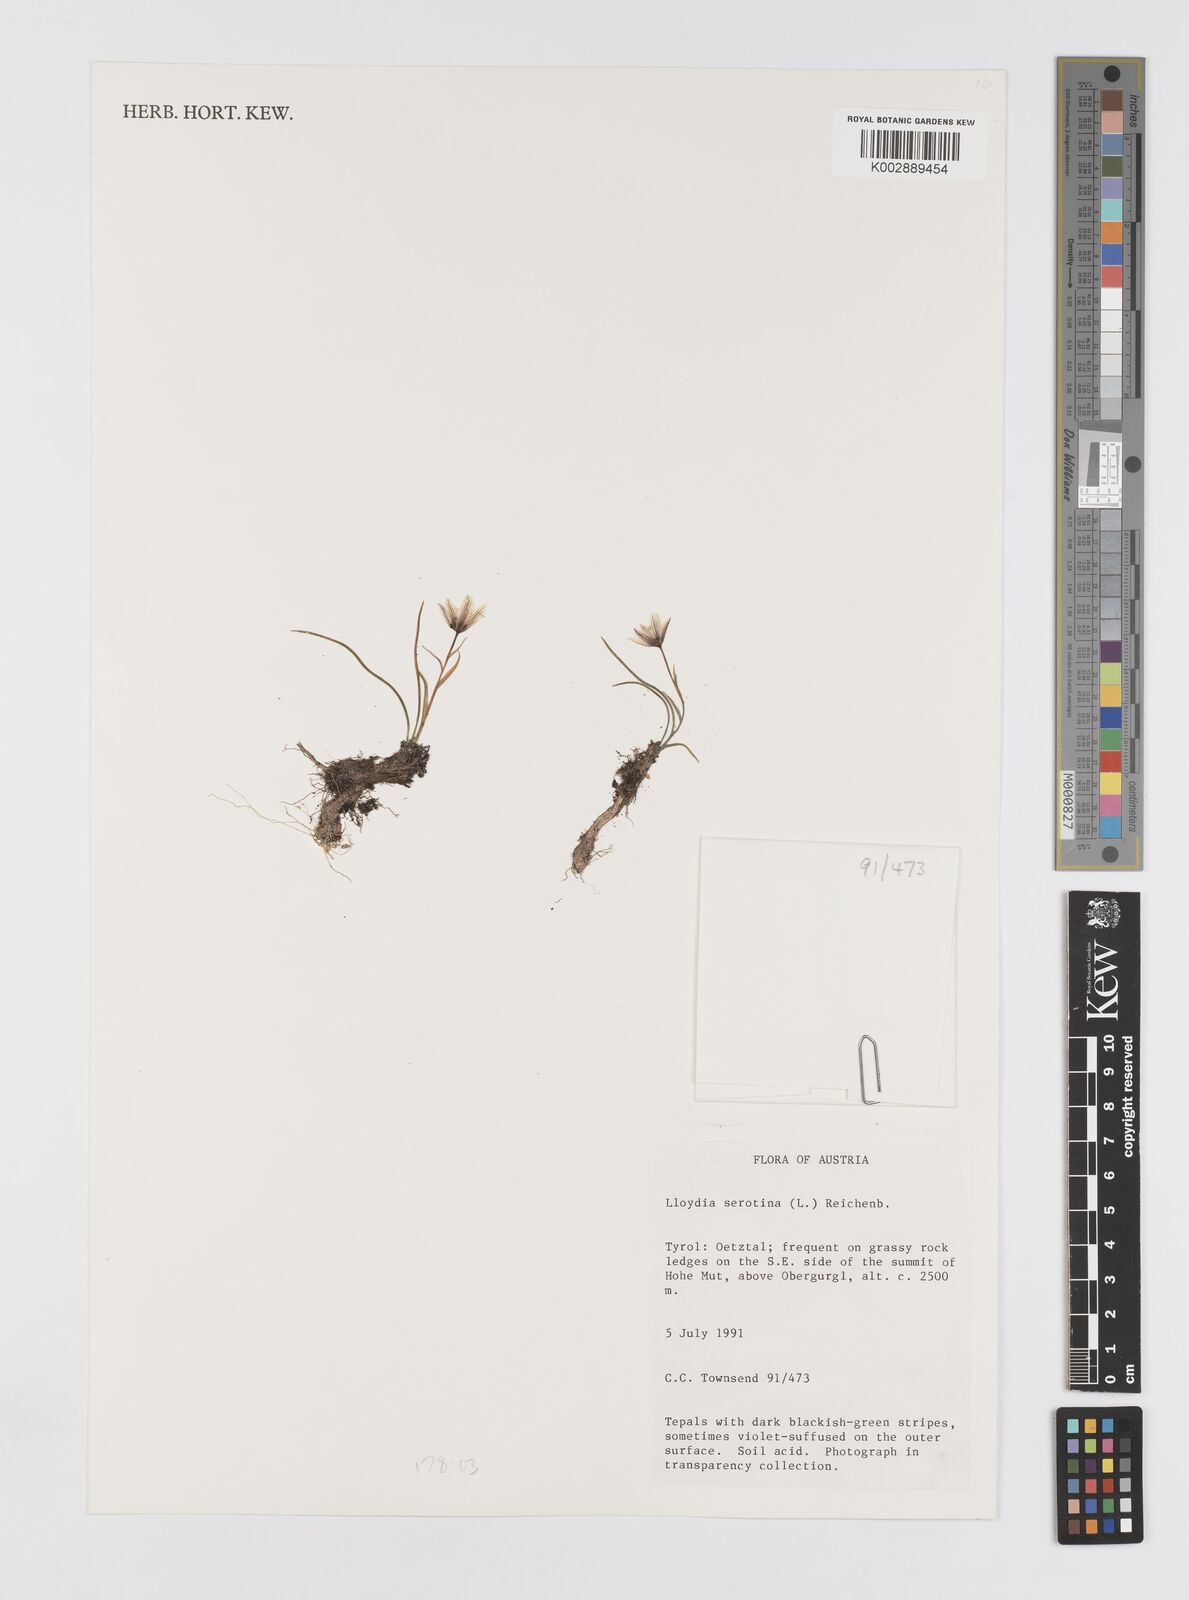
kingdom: Plantae
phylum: Tracheophyta
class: Liliopsida
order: Liliales
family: Liliaceae
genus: Gagea
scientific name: Gagea
